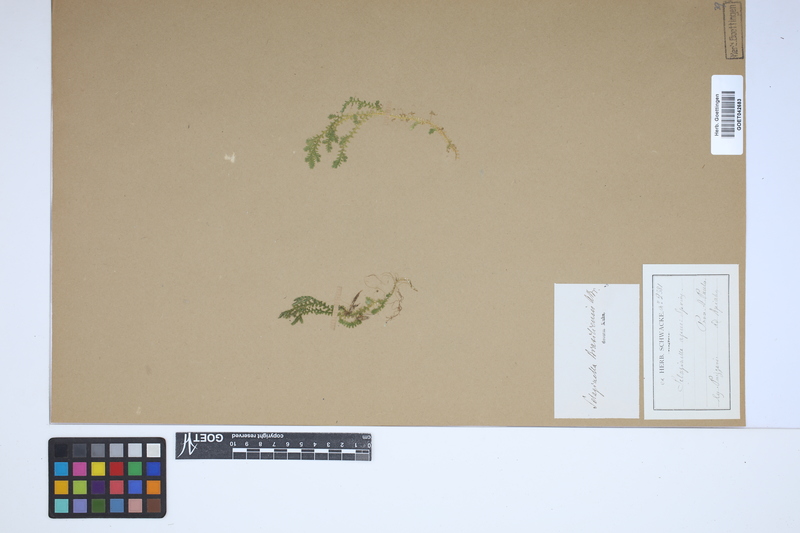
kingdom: Plantae
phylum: Tracheophyta
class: Lycopodiopsida
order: Selaginellales
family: Selaginellaceae
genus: Selaginella
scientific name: Selaginella muscosa
